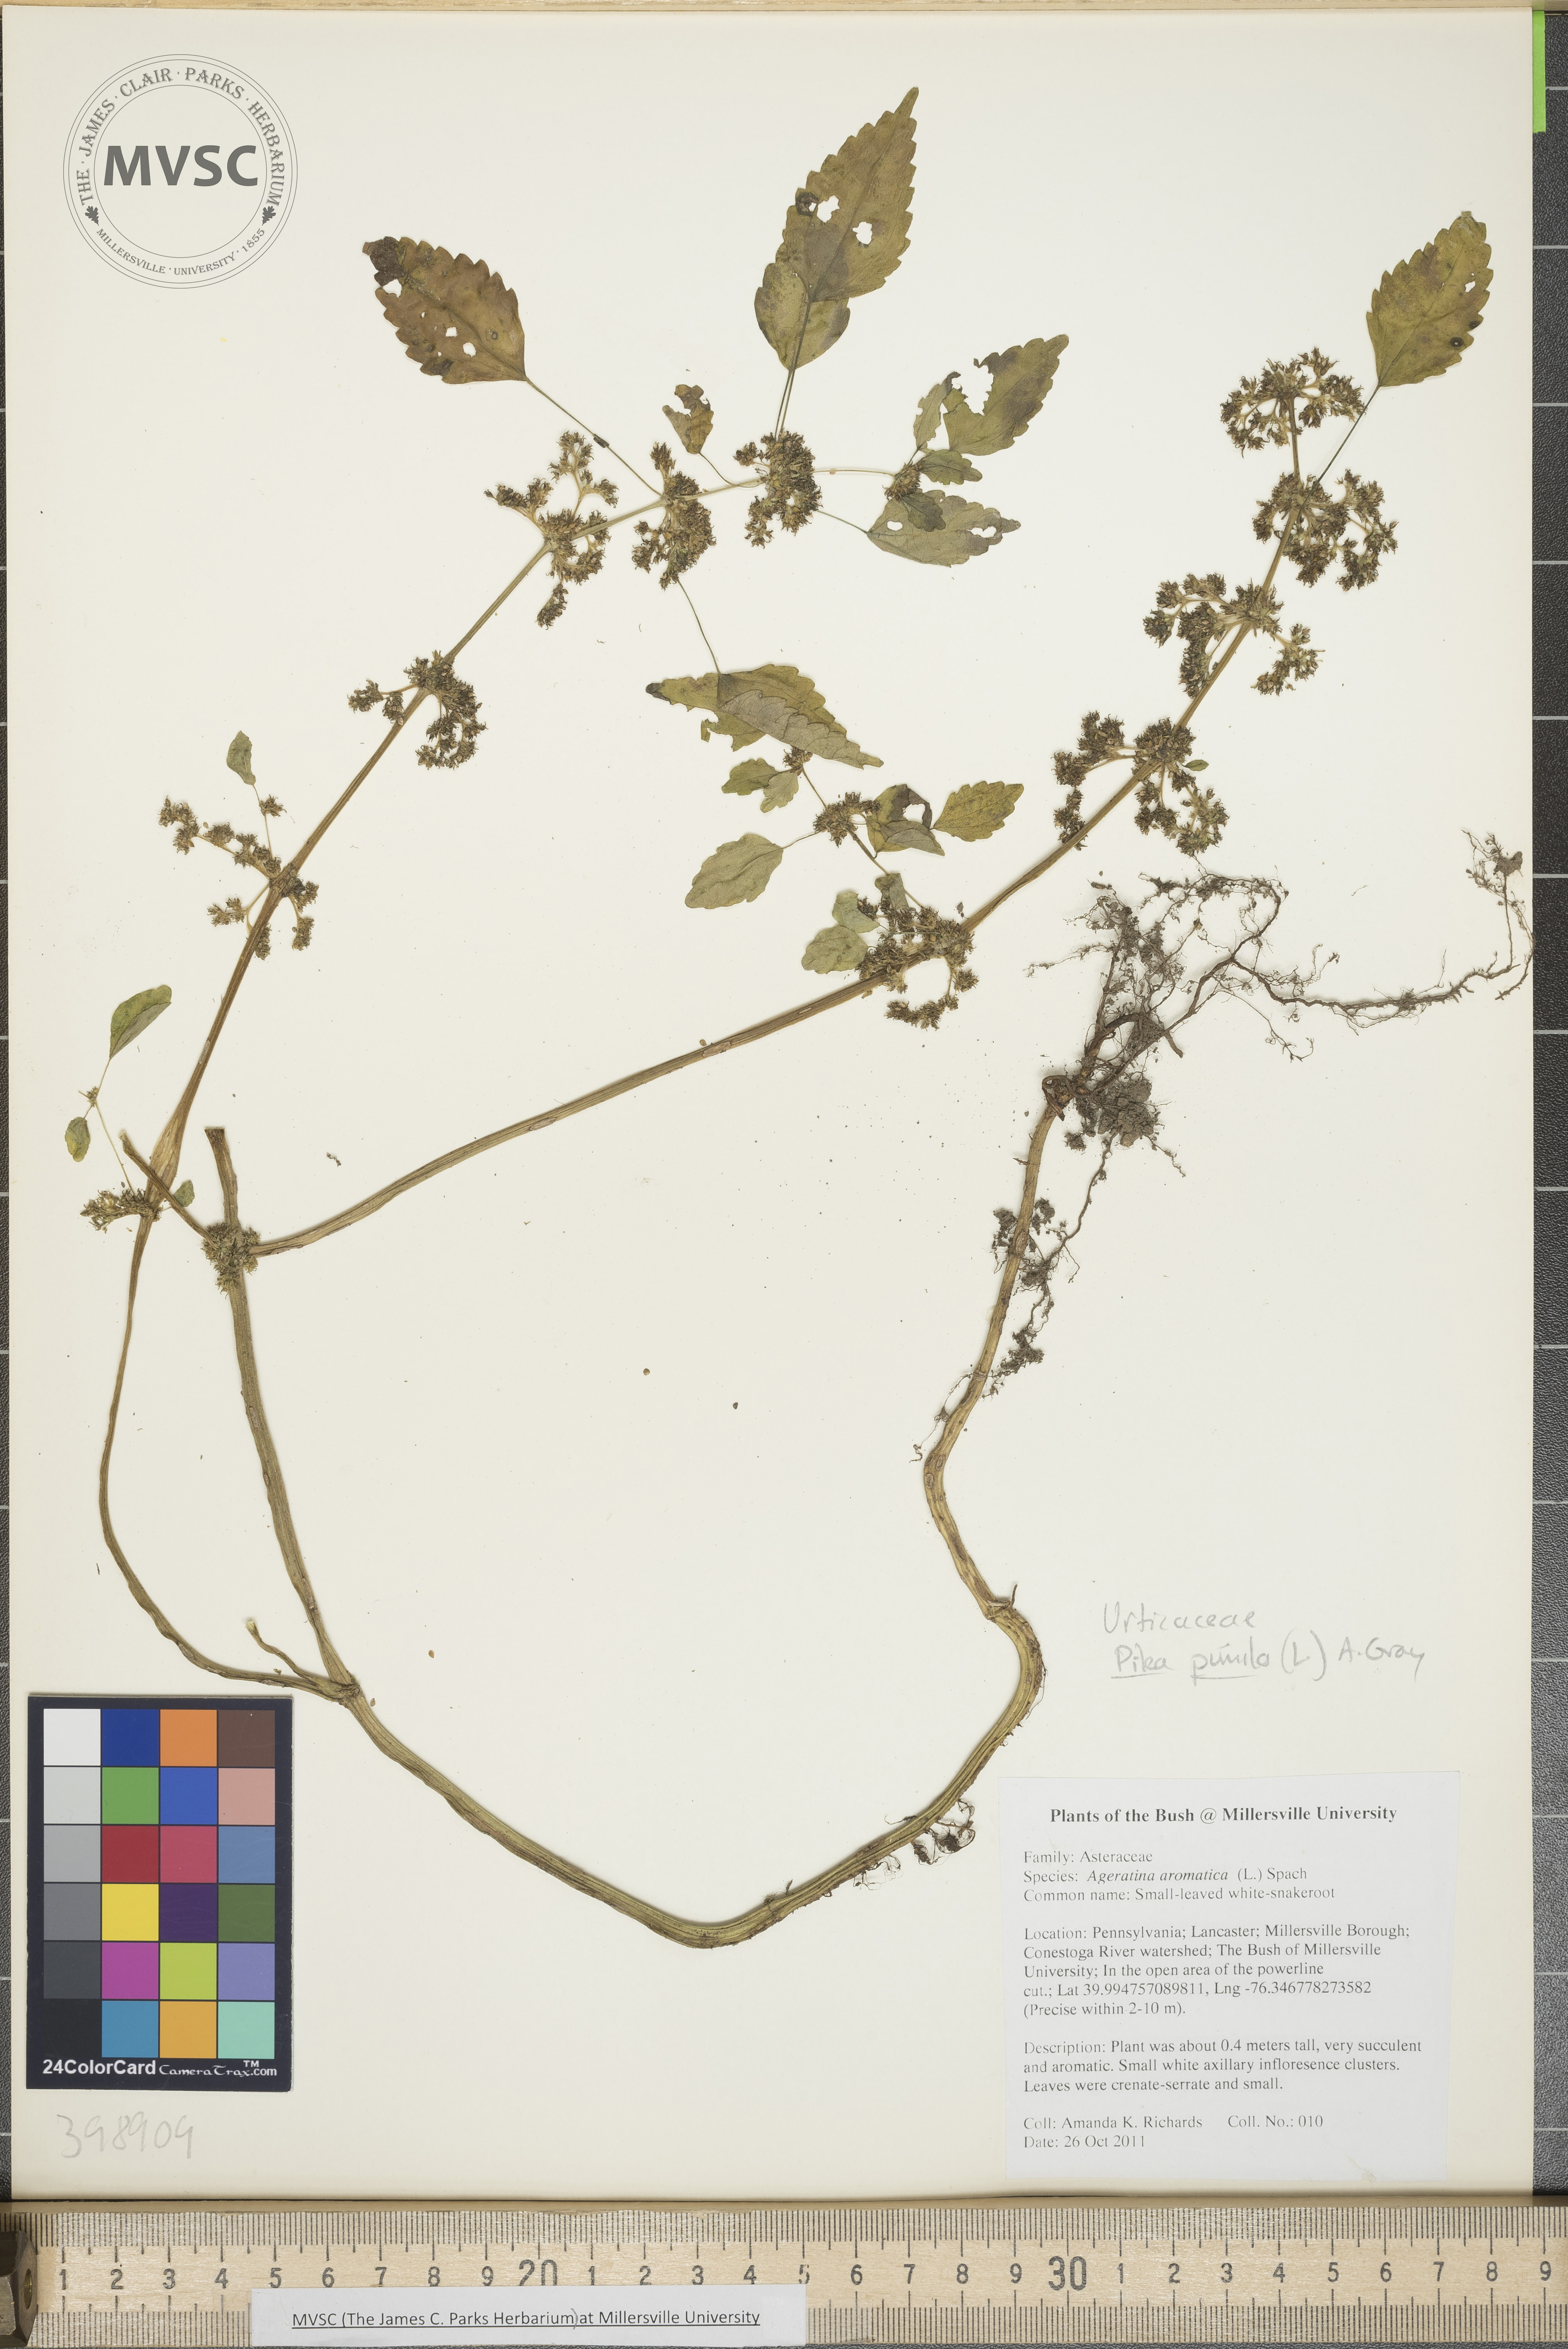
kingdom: Plantae
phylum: Tracheophyta
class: Magnoliopsida
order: Rosales
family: Urticaceae
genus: Pilea
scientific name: Pilea pumila
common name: Clearweed
